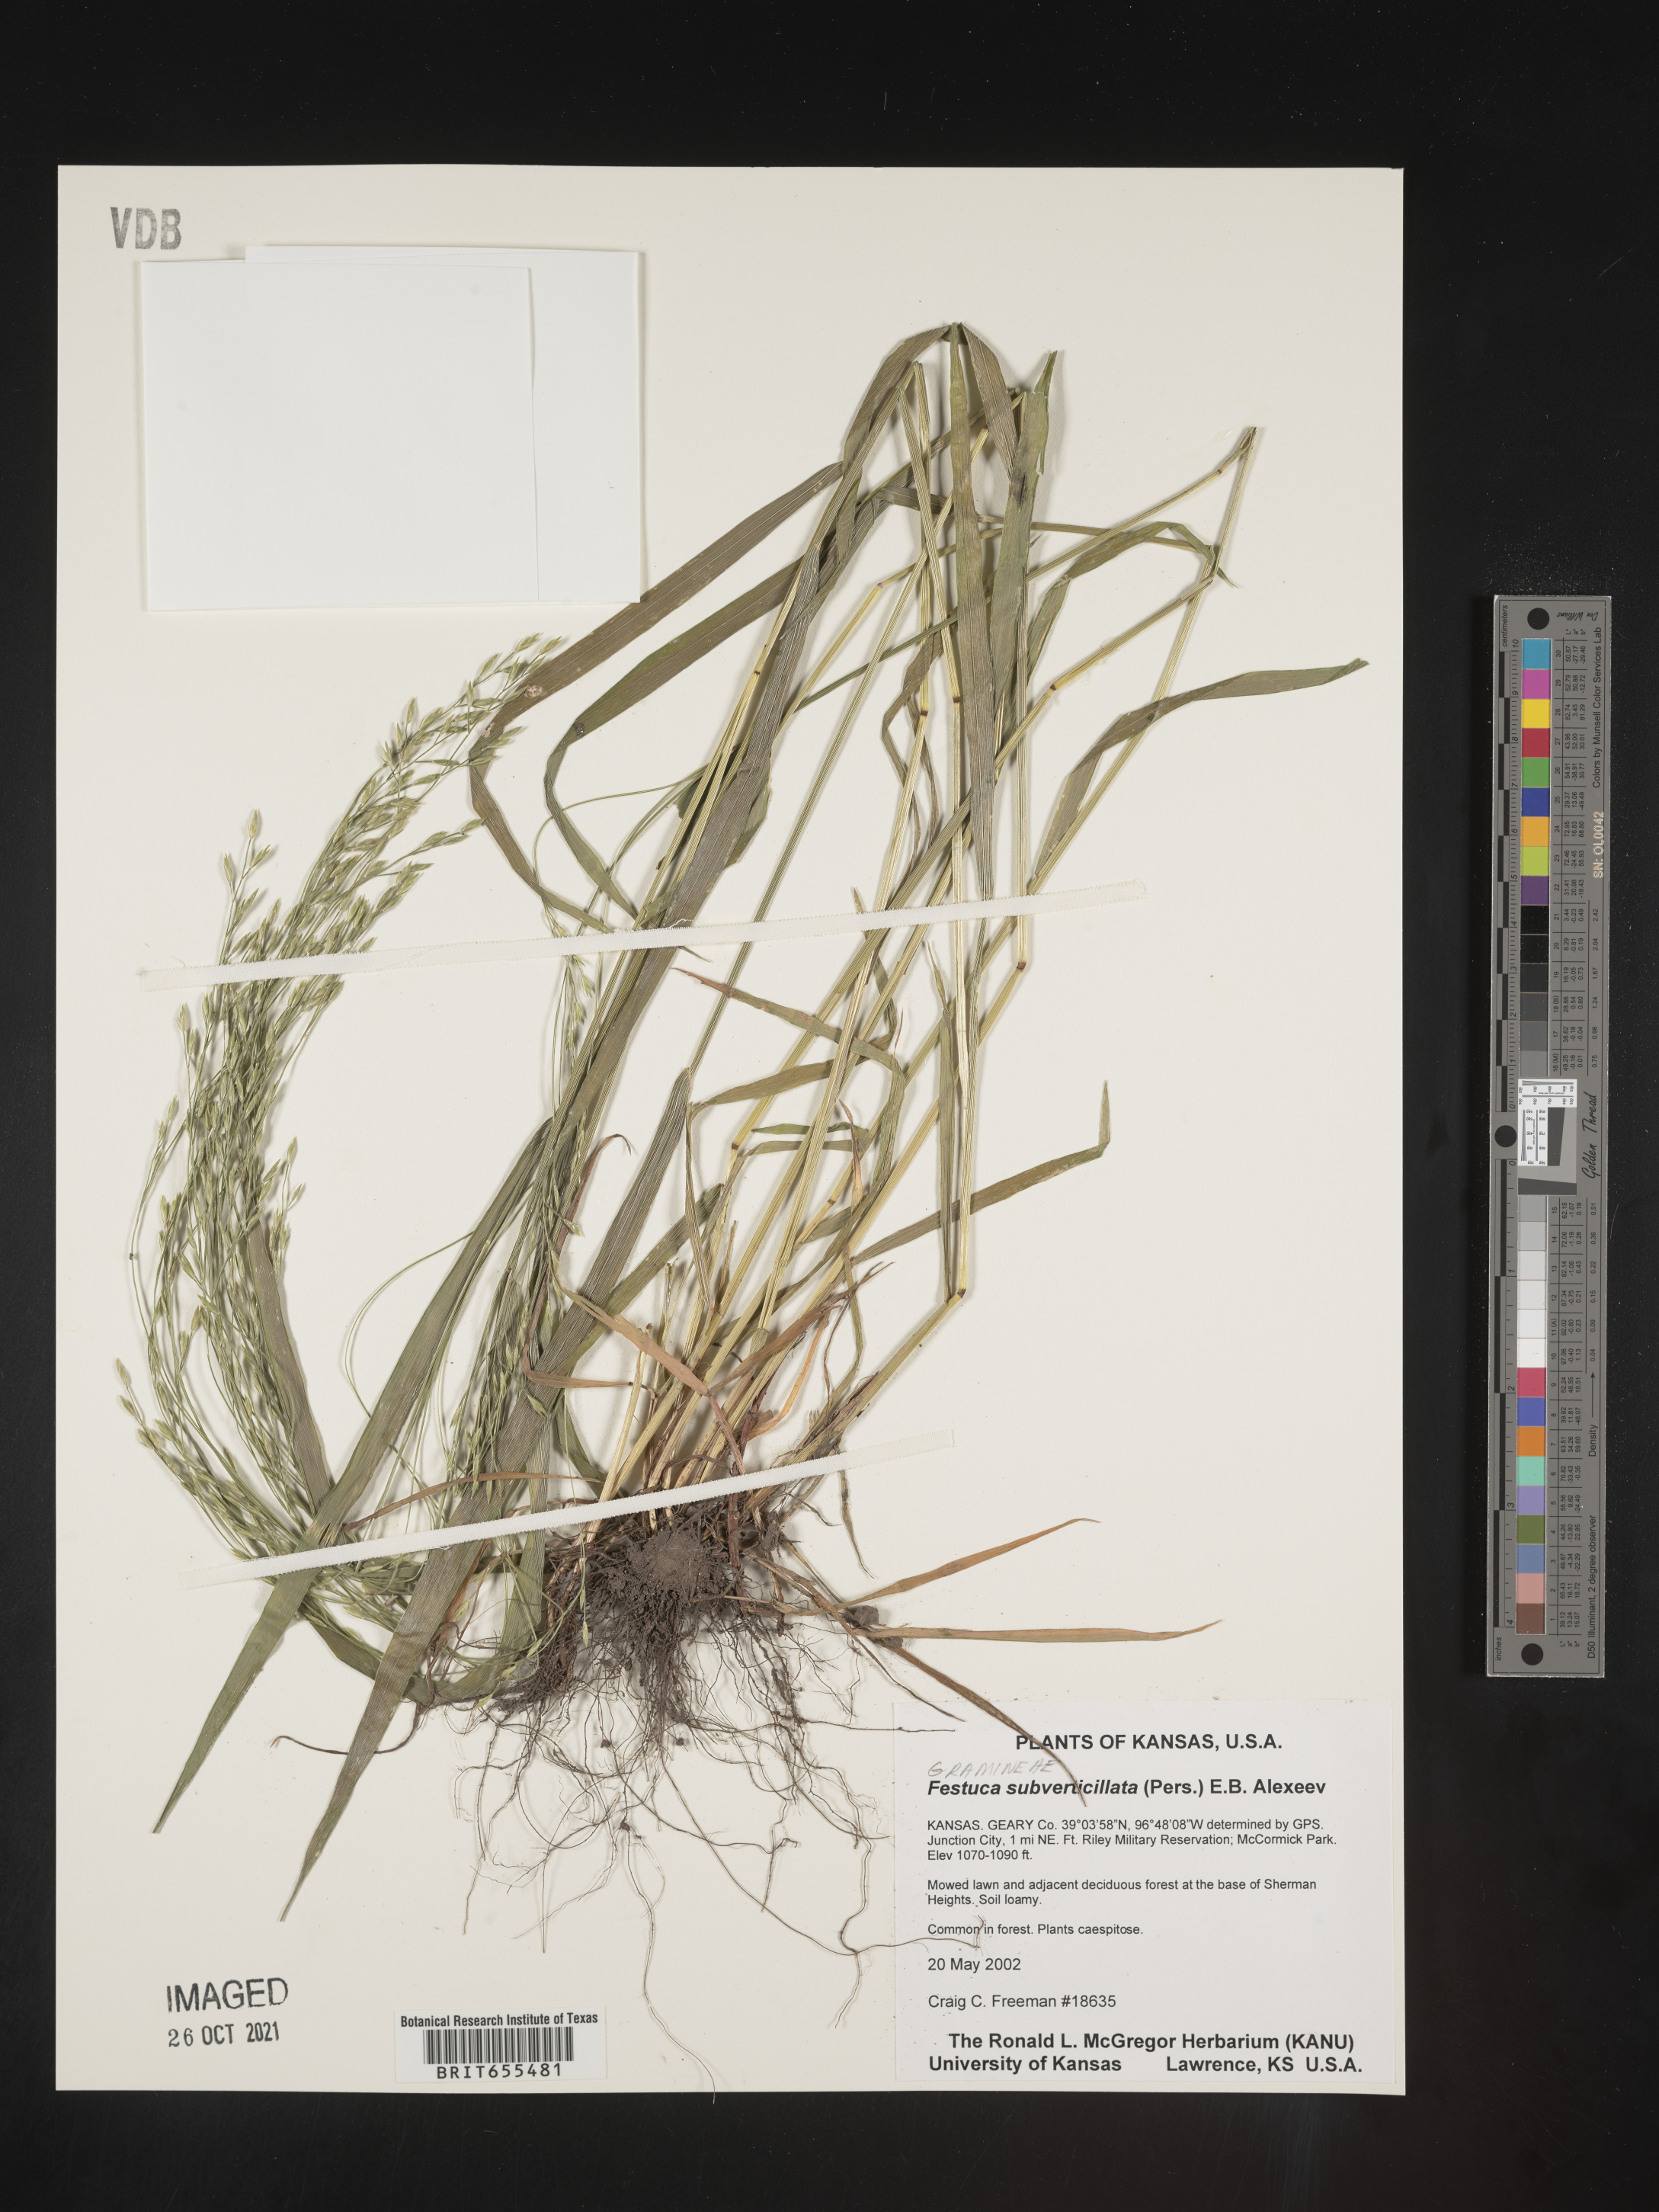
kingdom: Plantae
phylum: Tracheophyta
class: Liliopsida
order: Poales
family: Poaceae
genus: Festuca
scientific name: Festuca
